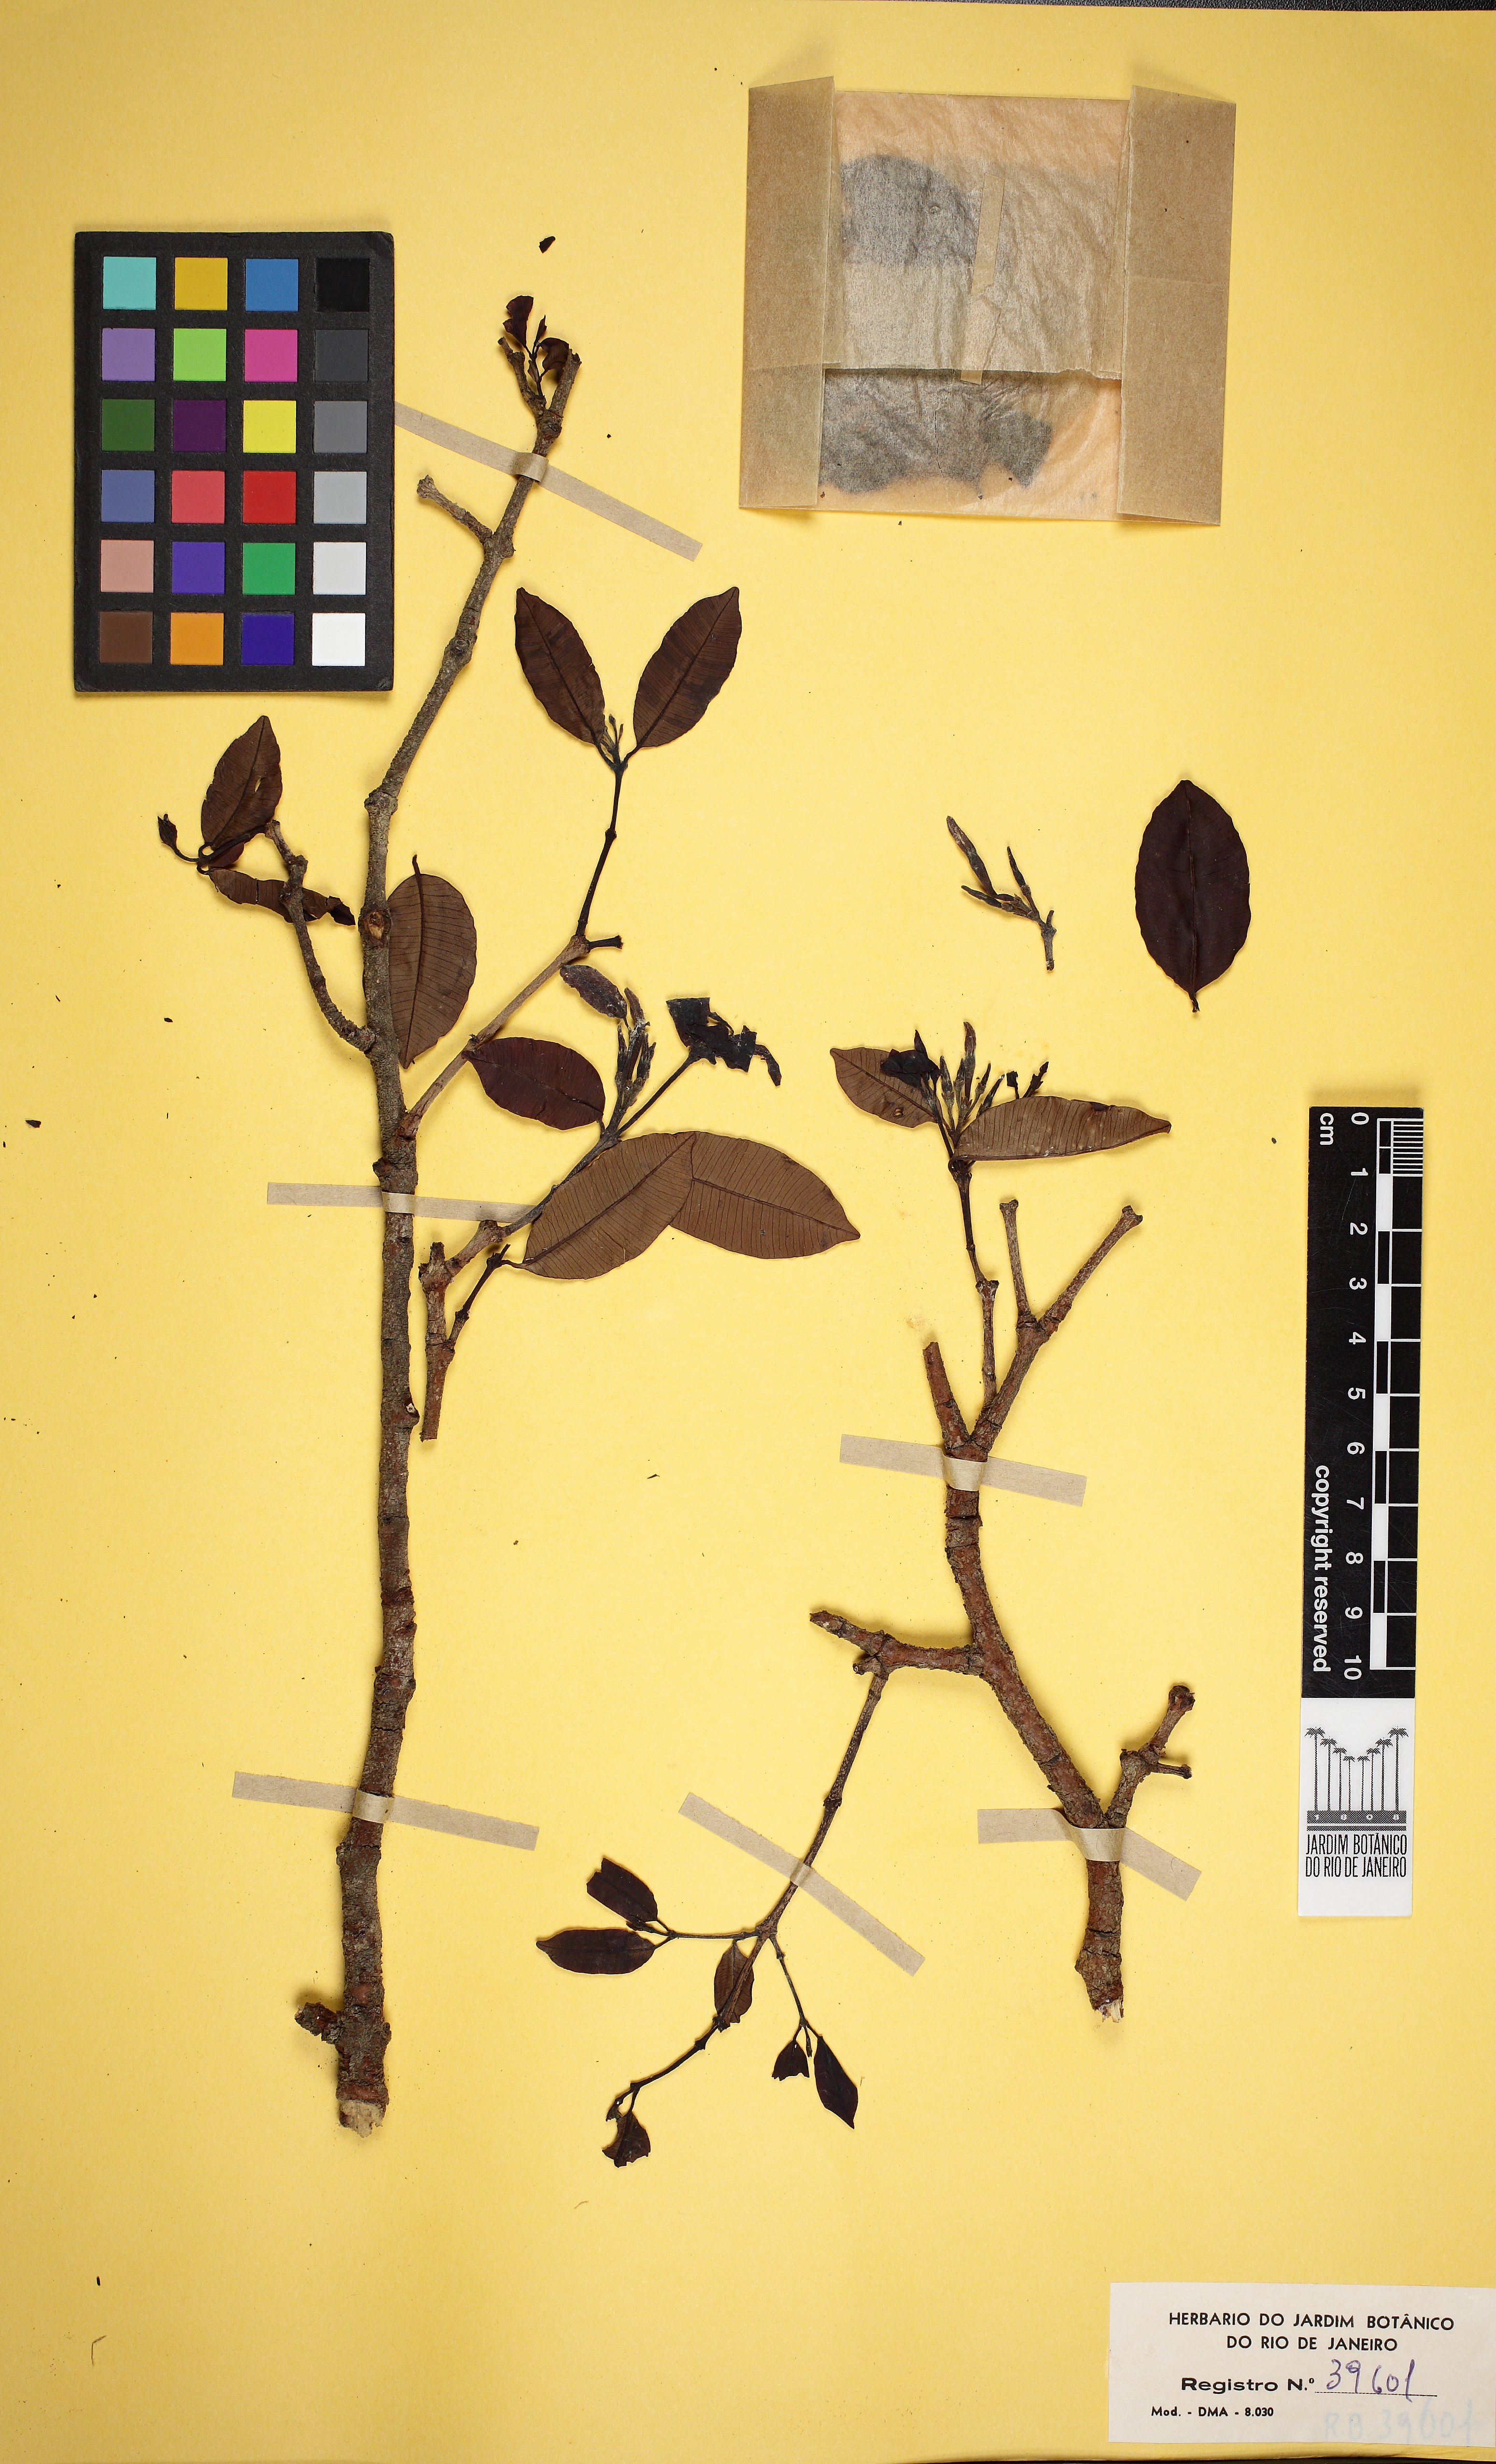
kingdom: Plantae
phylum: Tracheophyta
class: Magnoliopsida
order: Gentianales
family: Apocynaceae
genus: Hancornia
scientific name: Hancornia speciosa
